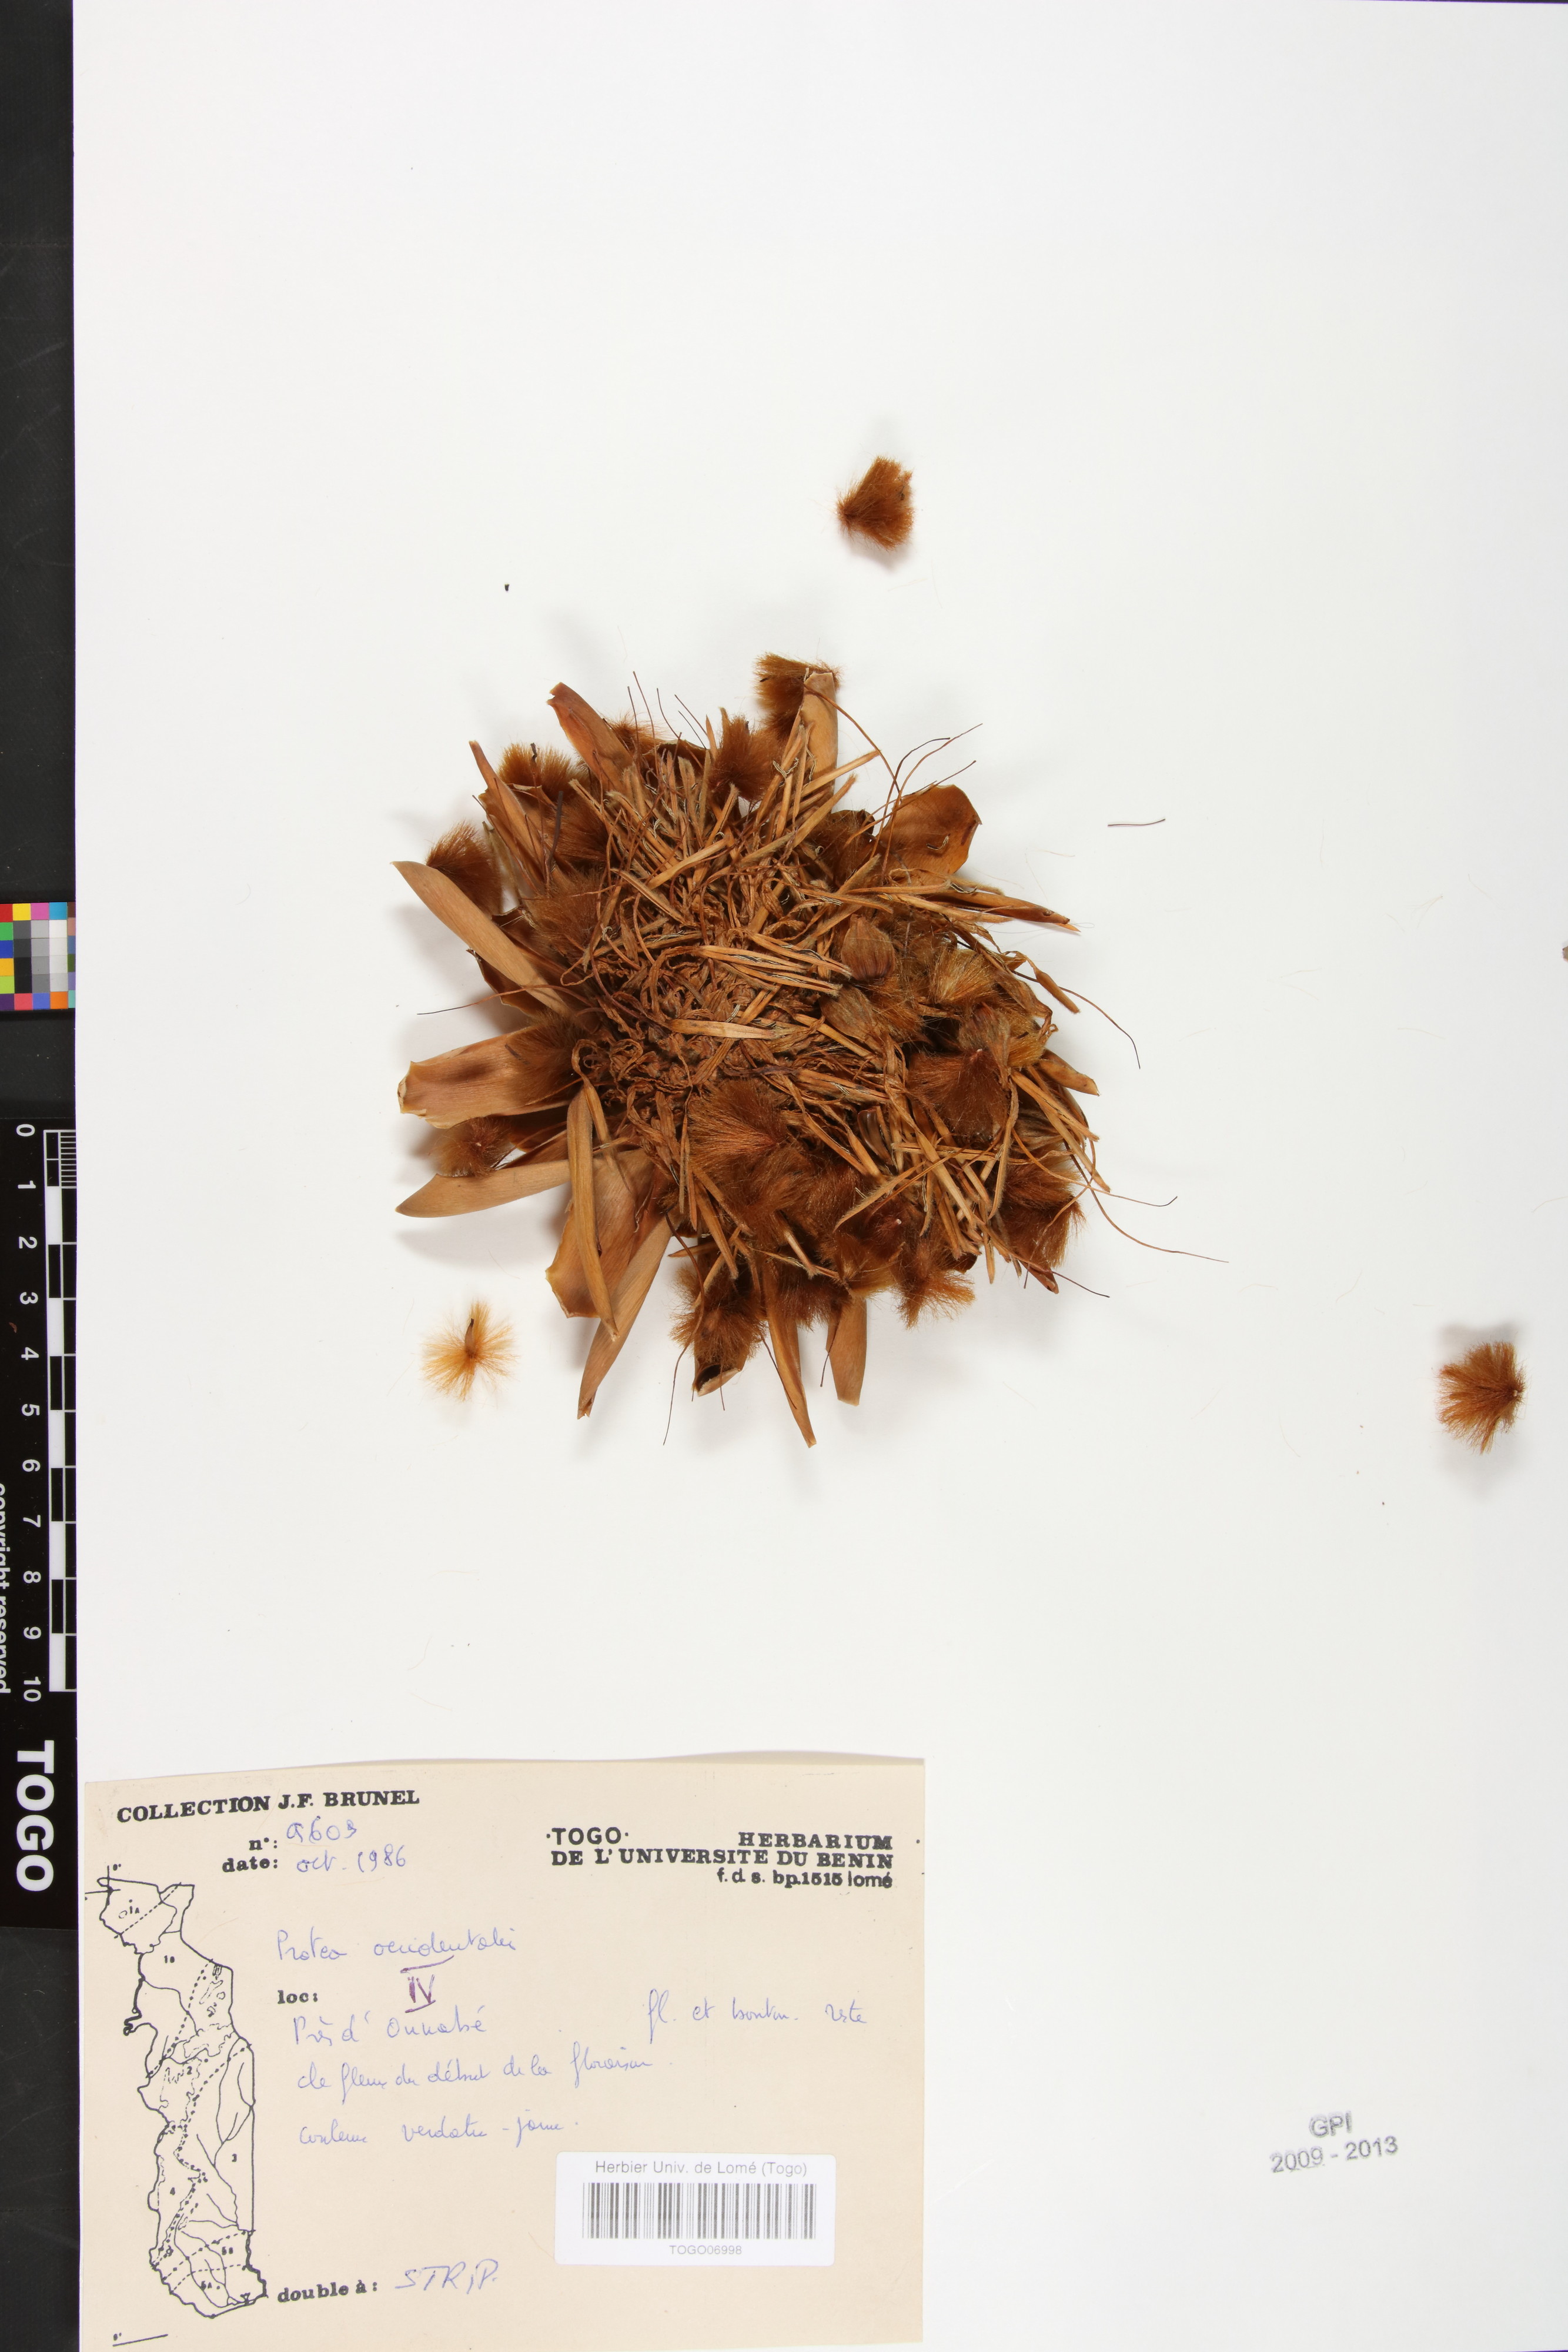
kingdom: Plantae
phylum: Tracheophyta
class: Magnoliopsida
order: Proteales
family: Proteaceae
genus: Protea
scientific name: Protea madiensis
